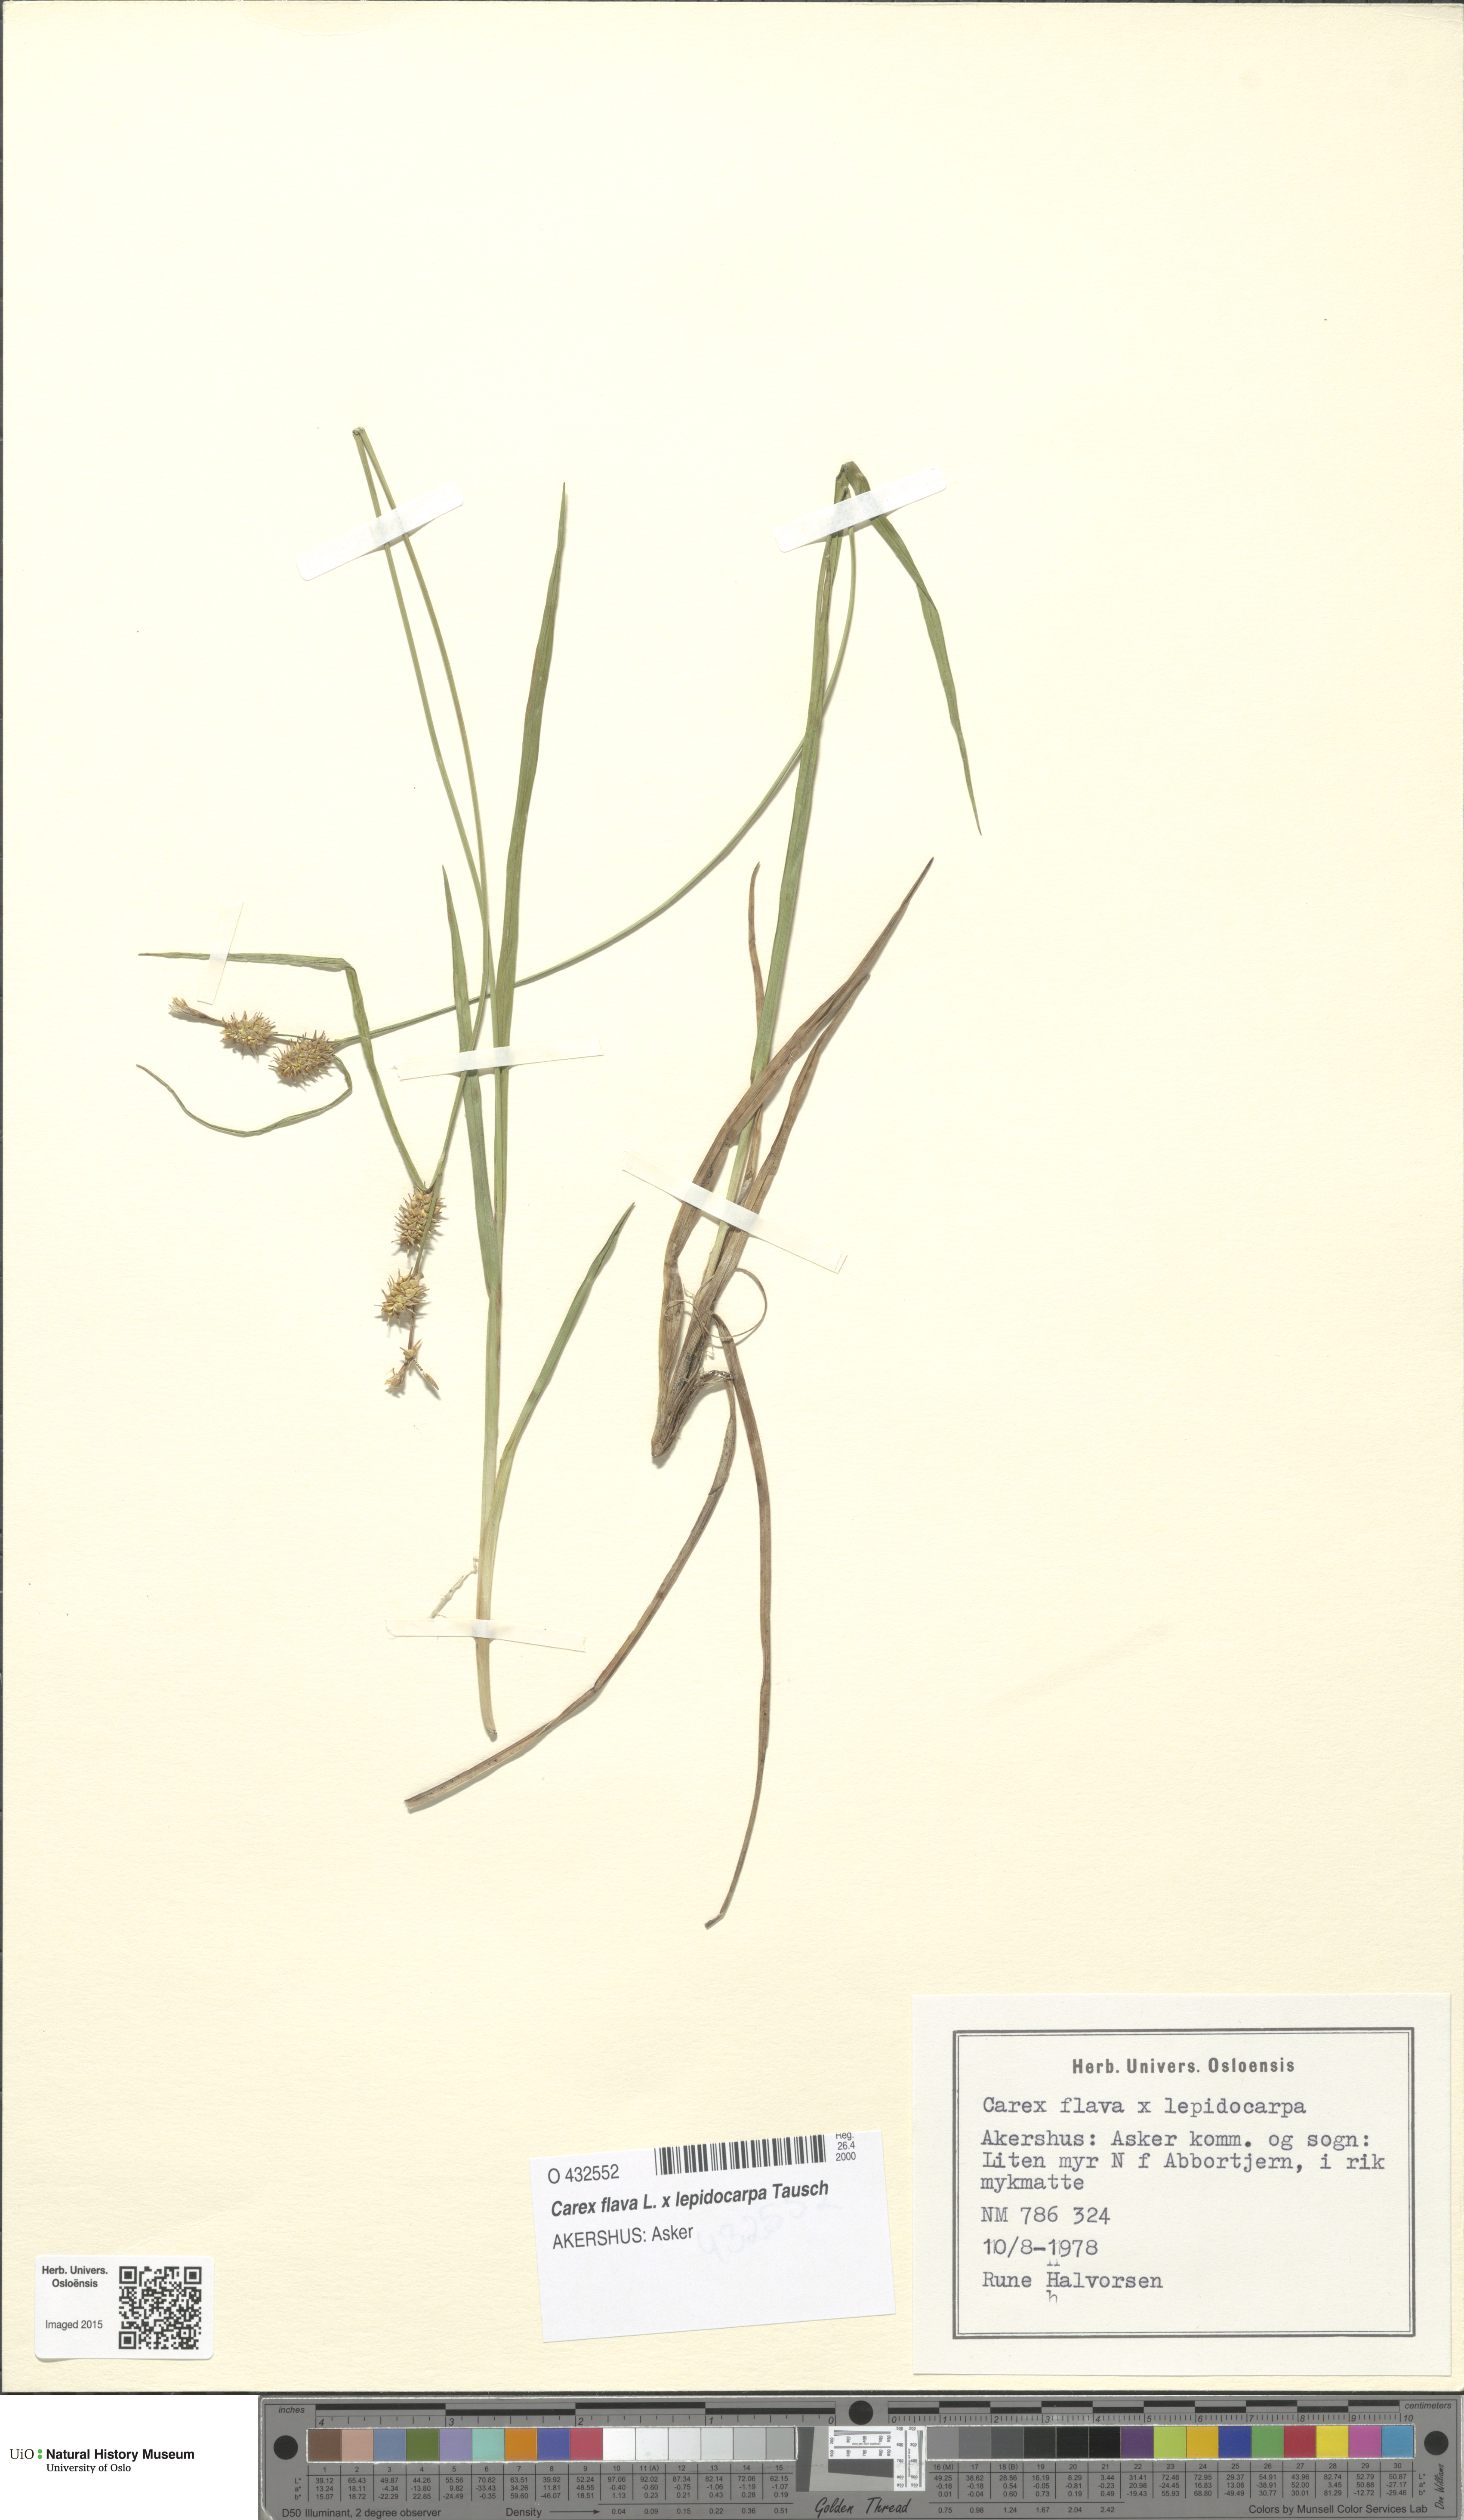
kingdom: Plantae
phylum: Tracheophyta
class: Liliopsida
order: Poales
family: Cyperaceae
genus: Carex
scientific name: Carex
